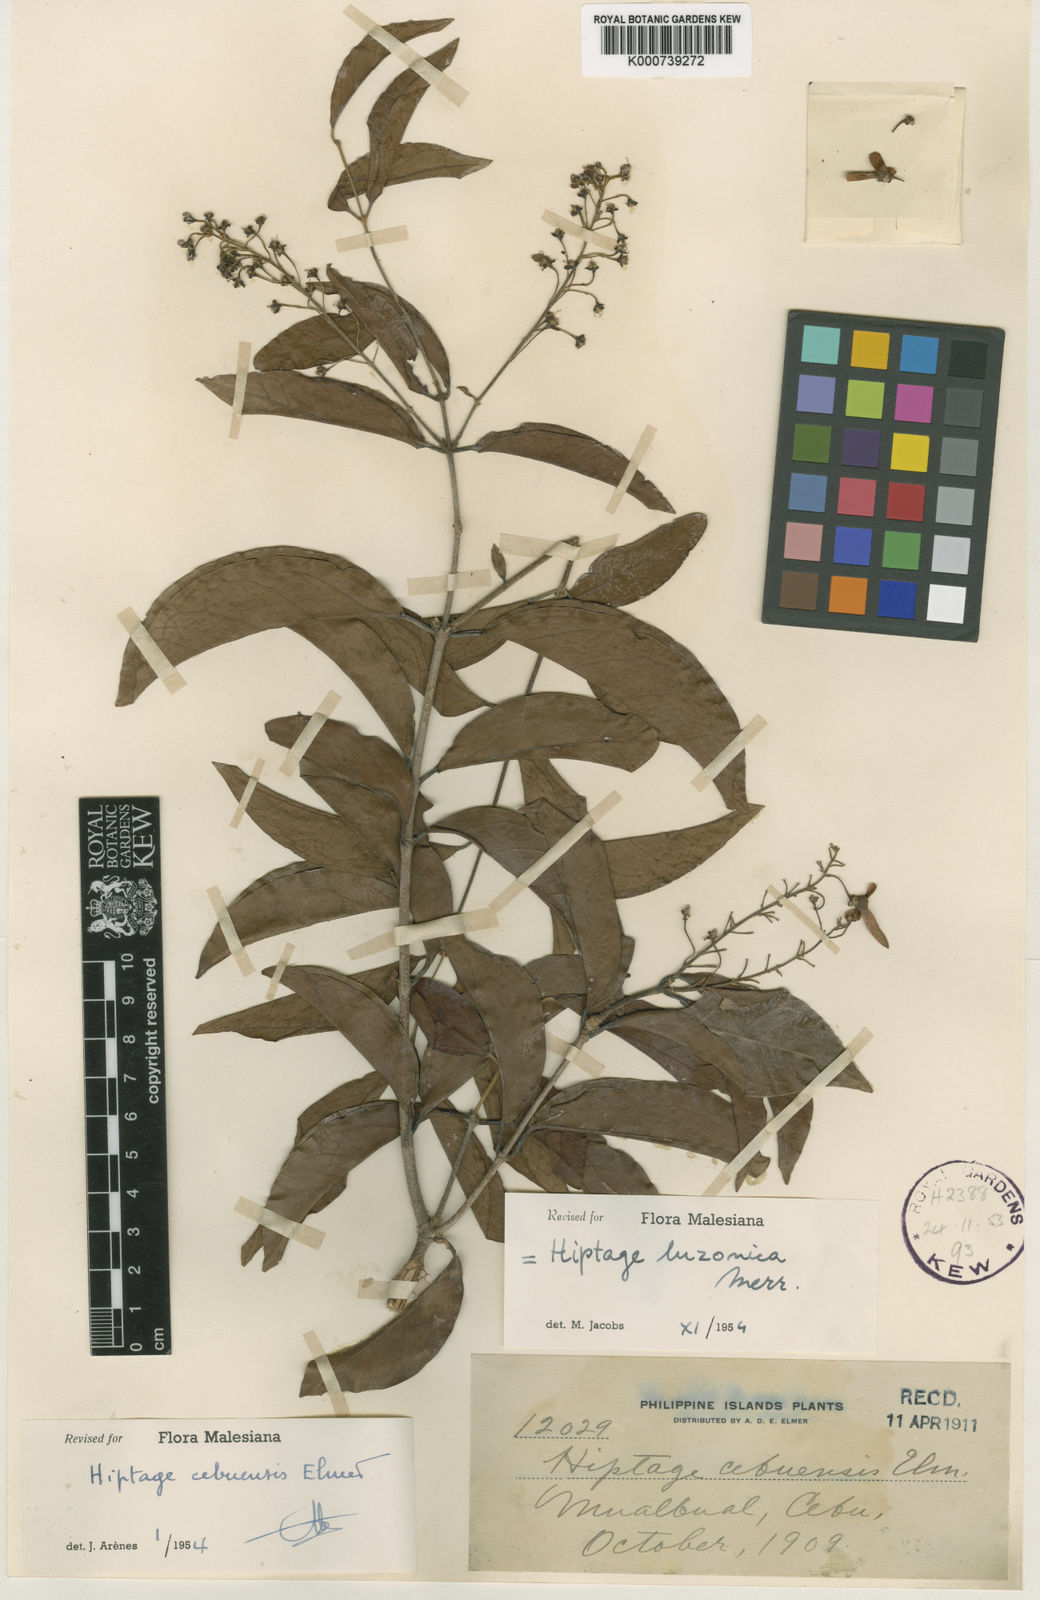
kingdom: Plantae
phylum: Tracheophyta
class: Magnoliopsida
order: Malpighiales
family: Malpighiaceae
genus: Hiptage
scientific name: Hiptage luzonica
